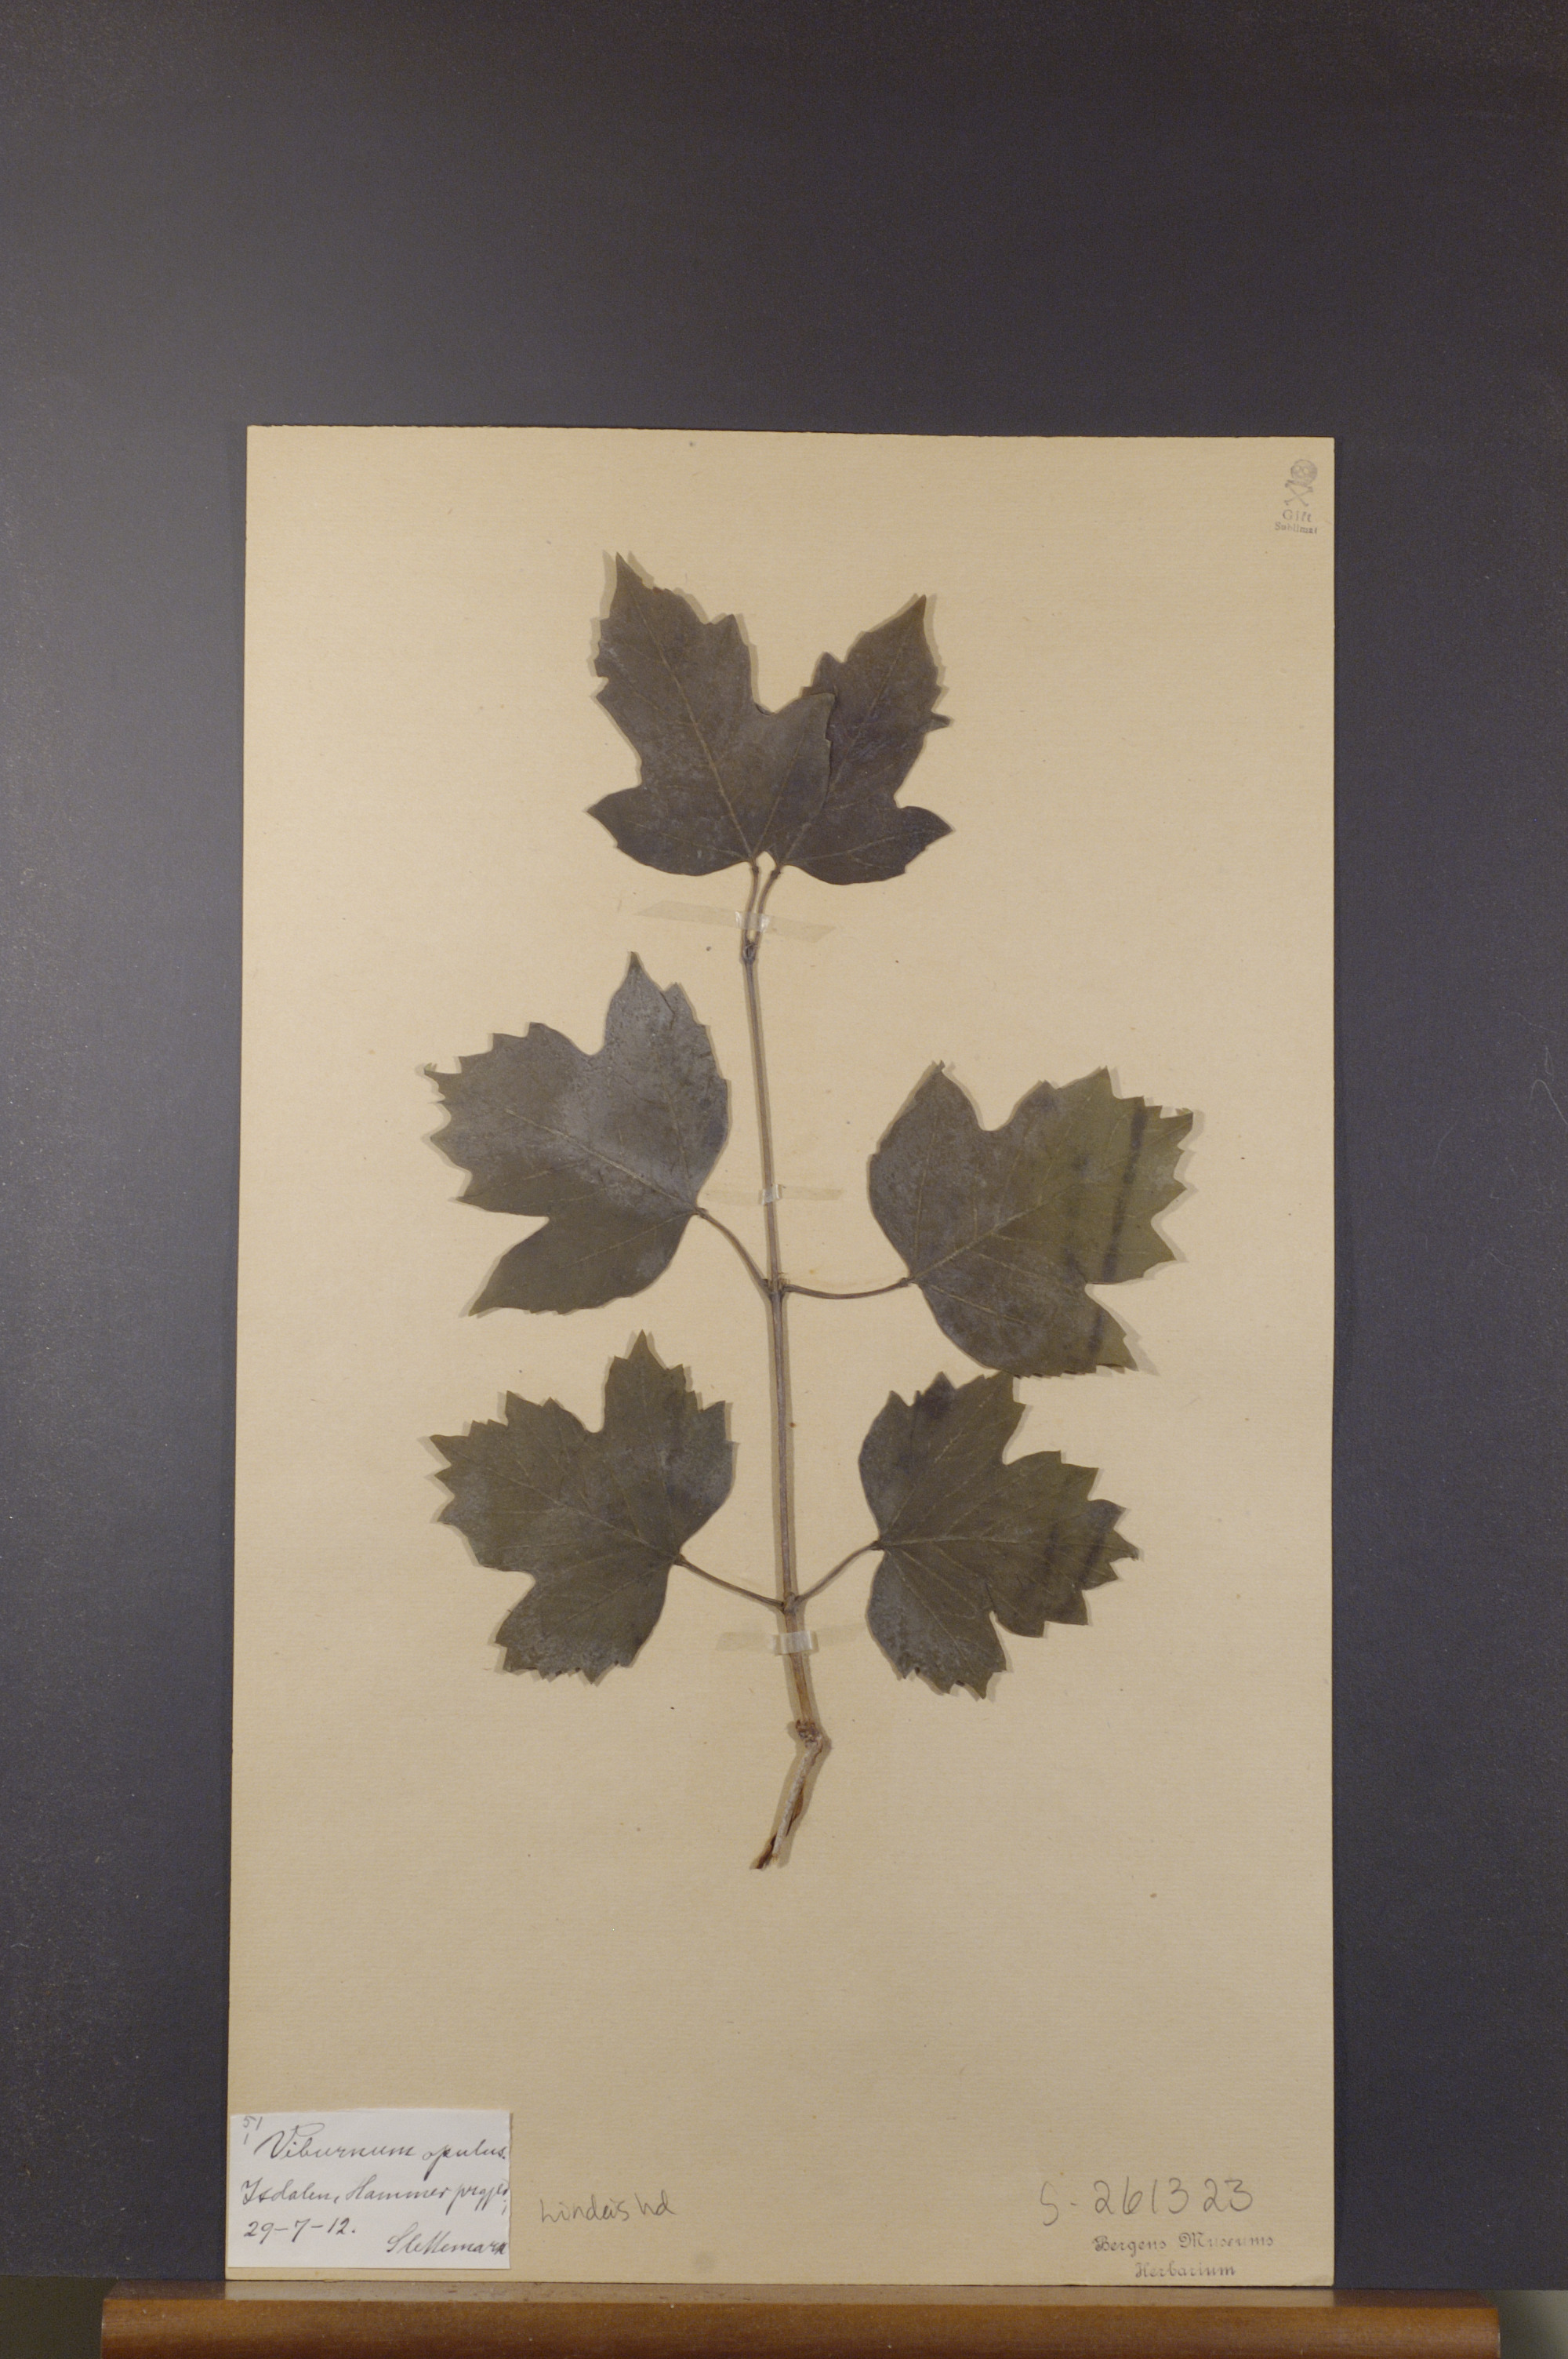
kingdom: Plantae
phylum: Tracheophyta
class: Magnoliopsida
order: Dipsacales
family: Viburnaceae
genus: Viburnum
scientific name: Viburnum opulus
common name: Guelder-rose
